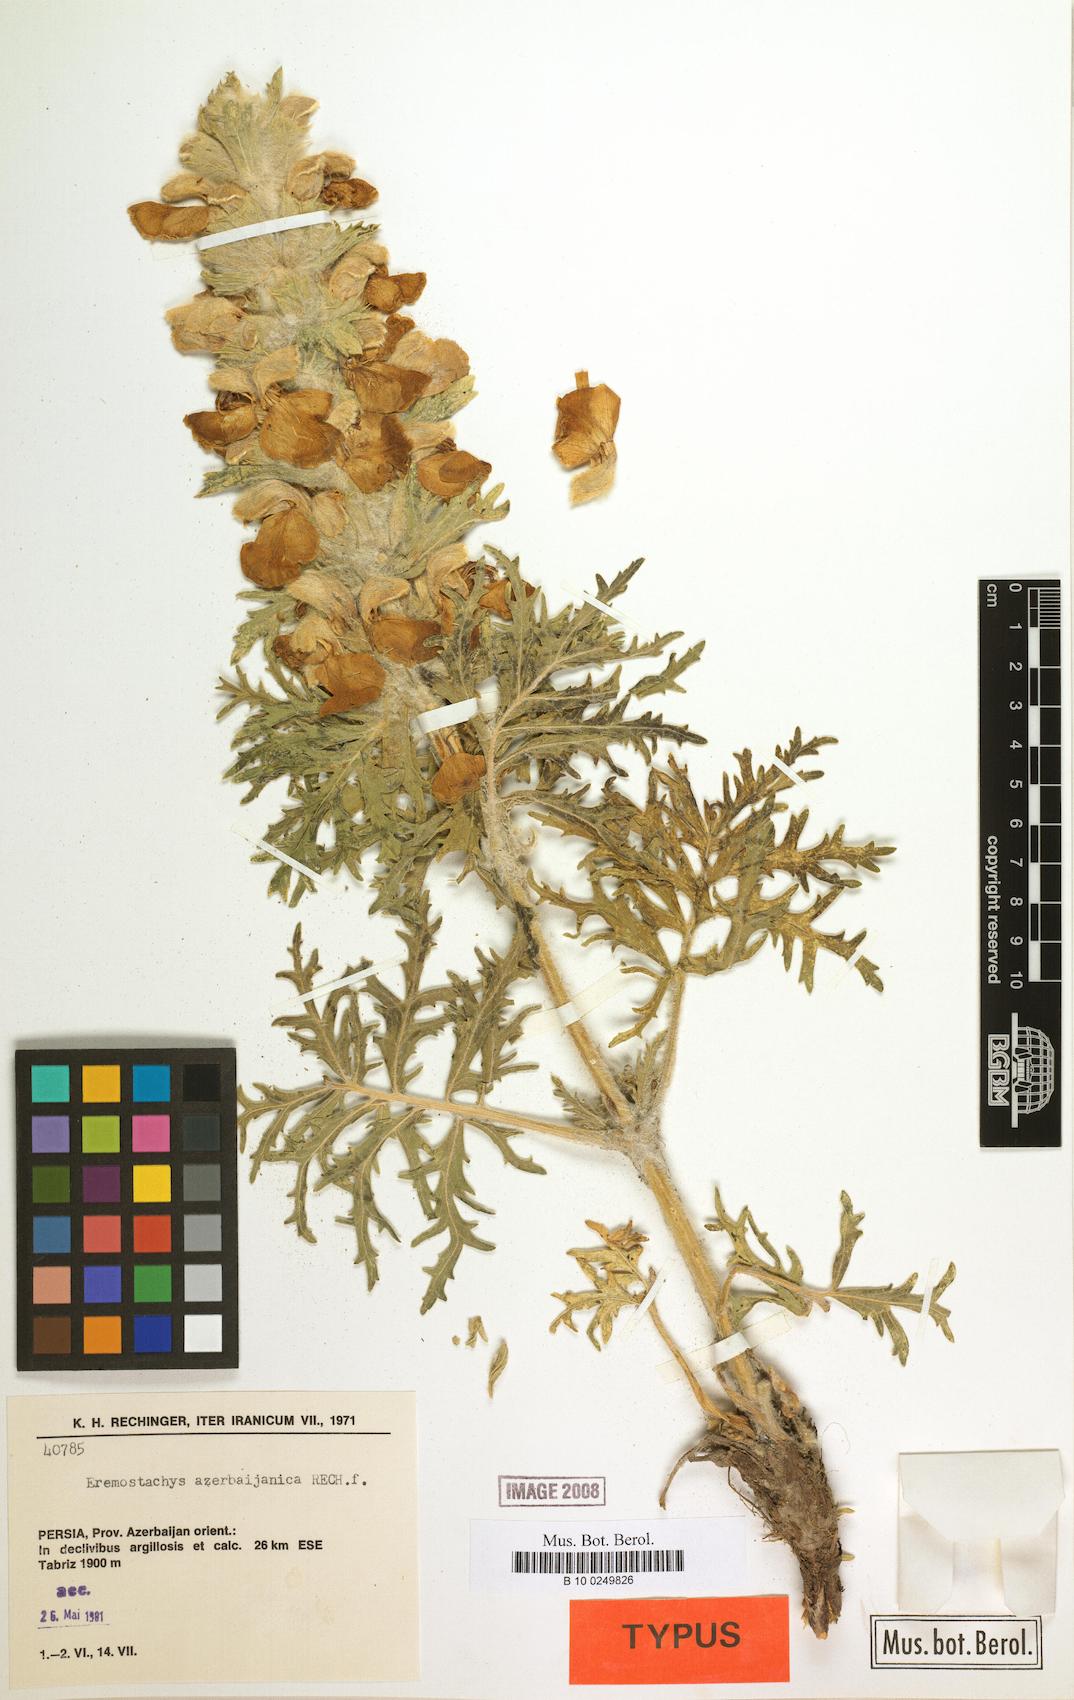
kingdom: Plantae
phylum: Tracheophyta
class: Magnoliopsida
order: Lamiales
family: Lamiaceae
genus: Phlomoides
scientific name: Phlomoides azerbaijanica
